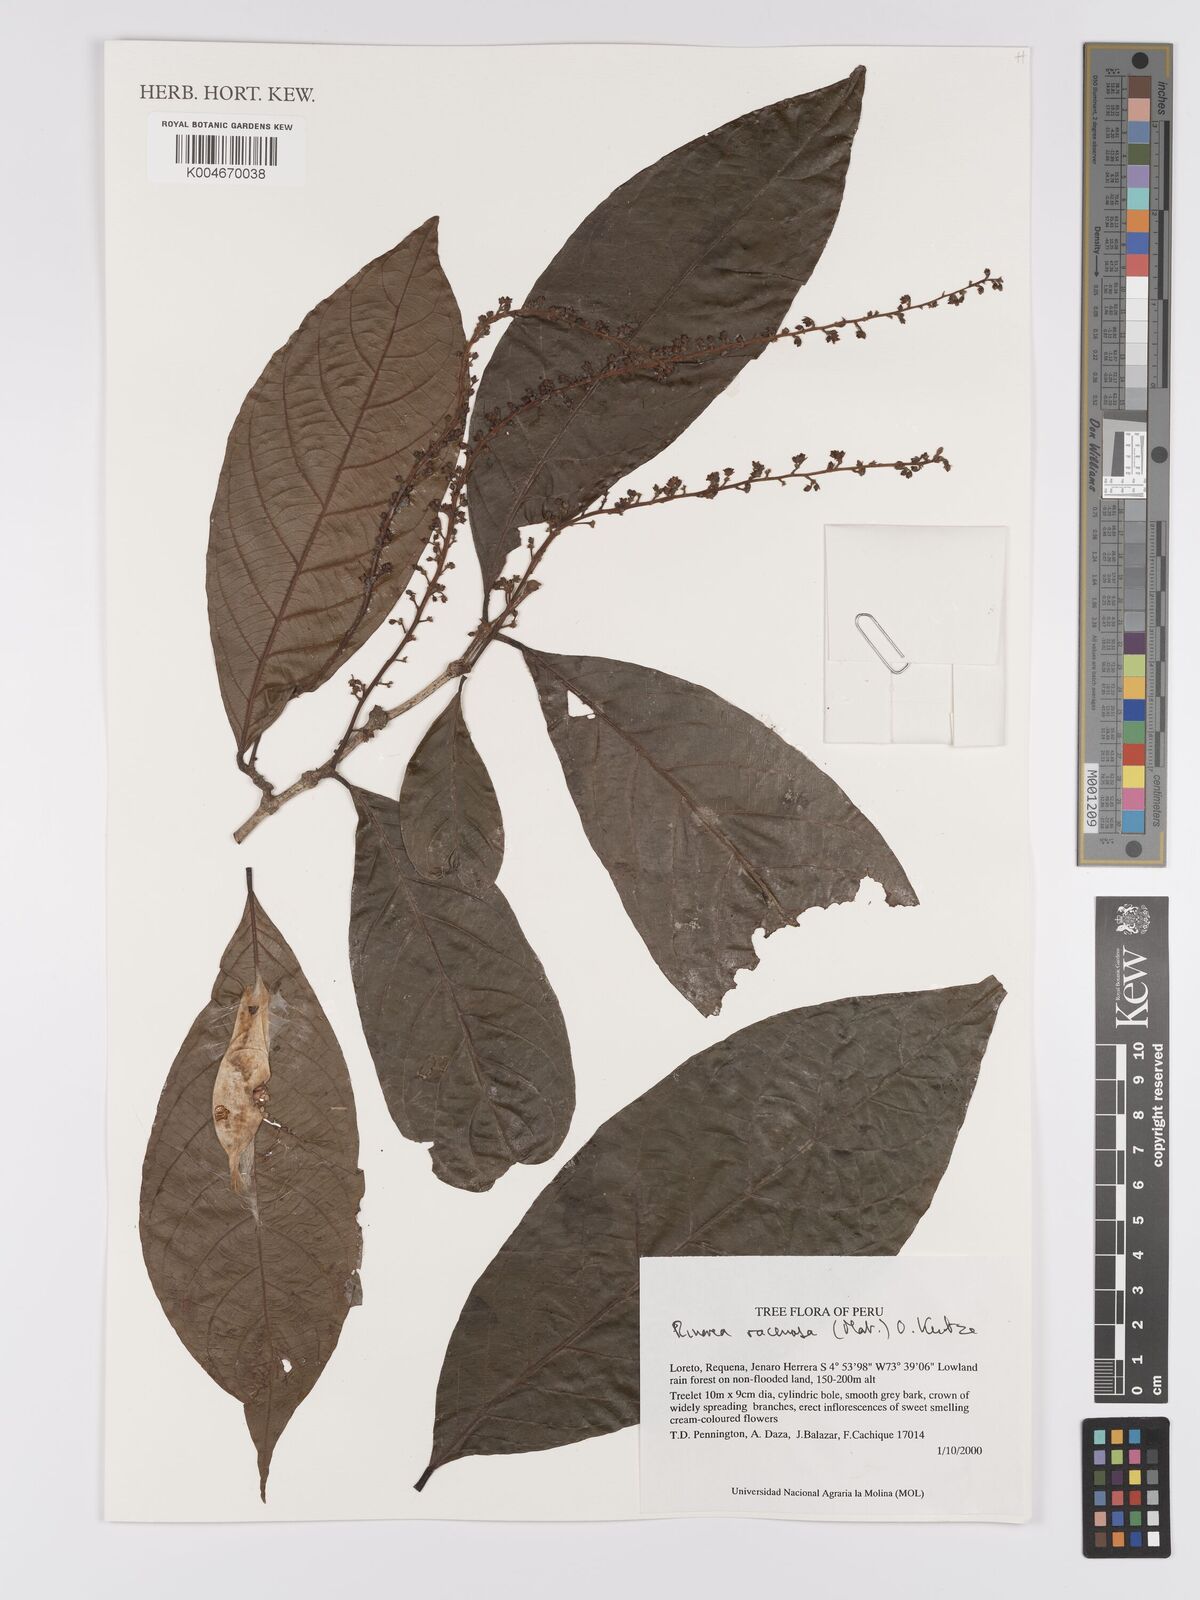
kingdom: Plantae
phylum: Tracheophyta
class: Magnoliopsida
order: Malpighiales
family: Violaceae
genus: Rinorea
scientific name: Rinorea racemosa
